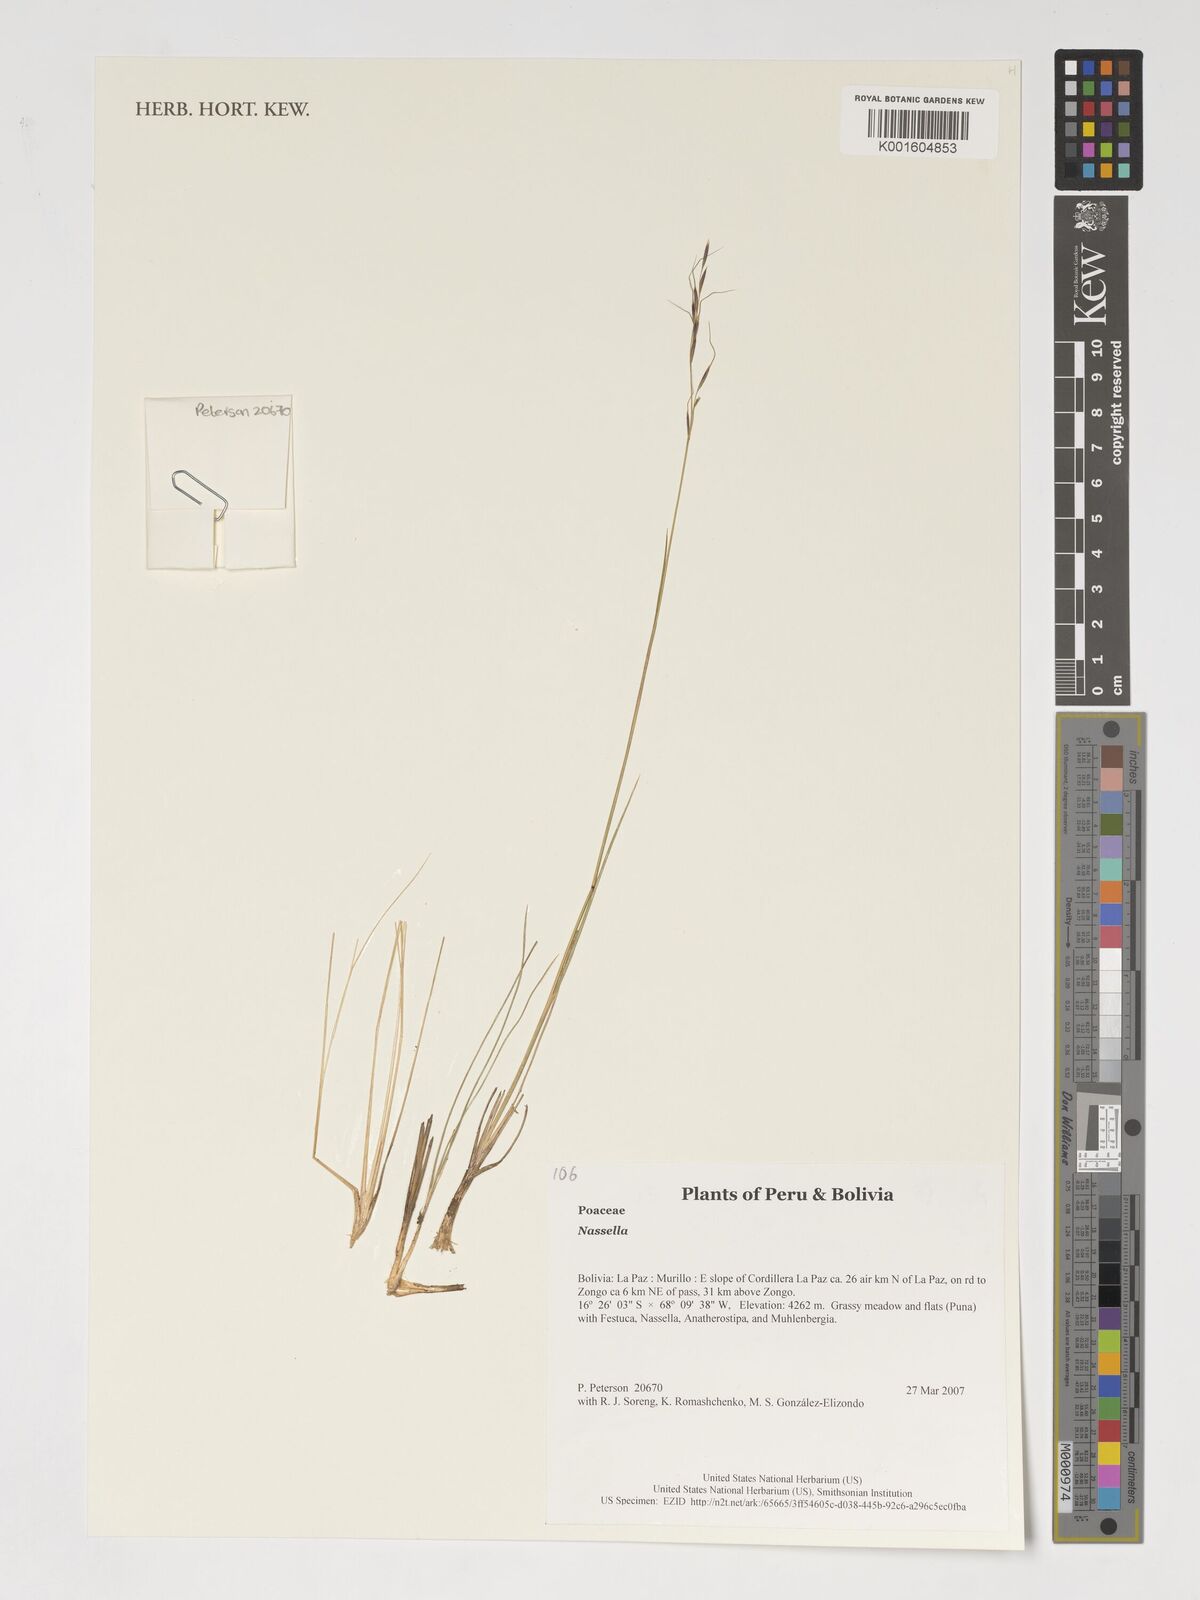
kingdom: Plantae
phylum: Tracheophyta
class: Liliopsida
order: Poales
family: Poaceae
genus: Nassella
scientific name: Nassella
